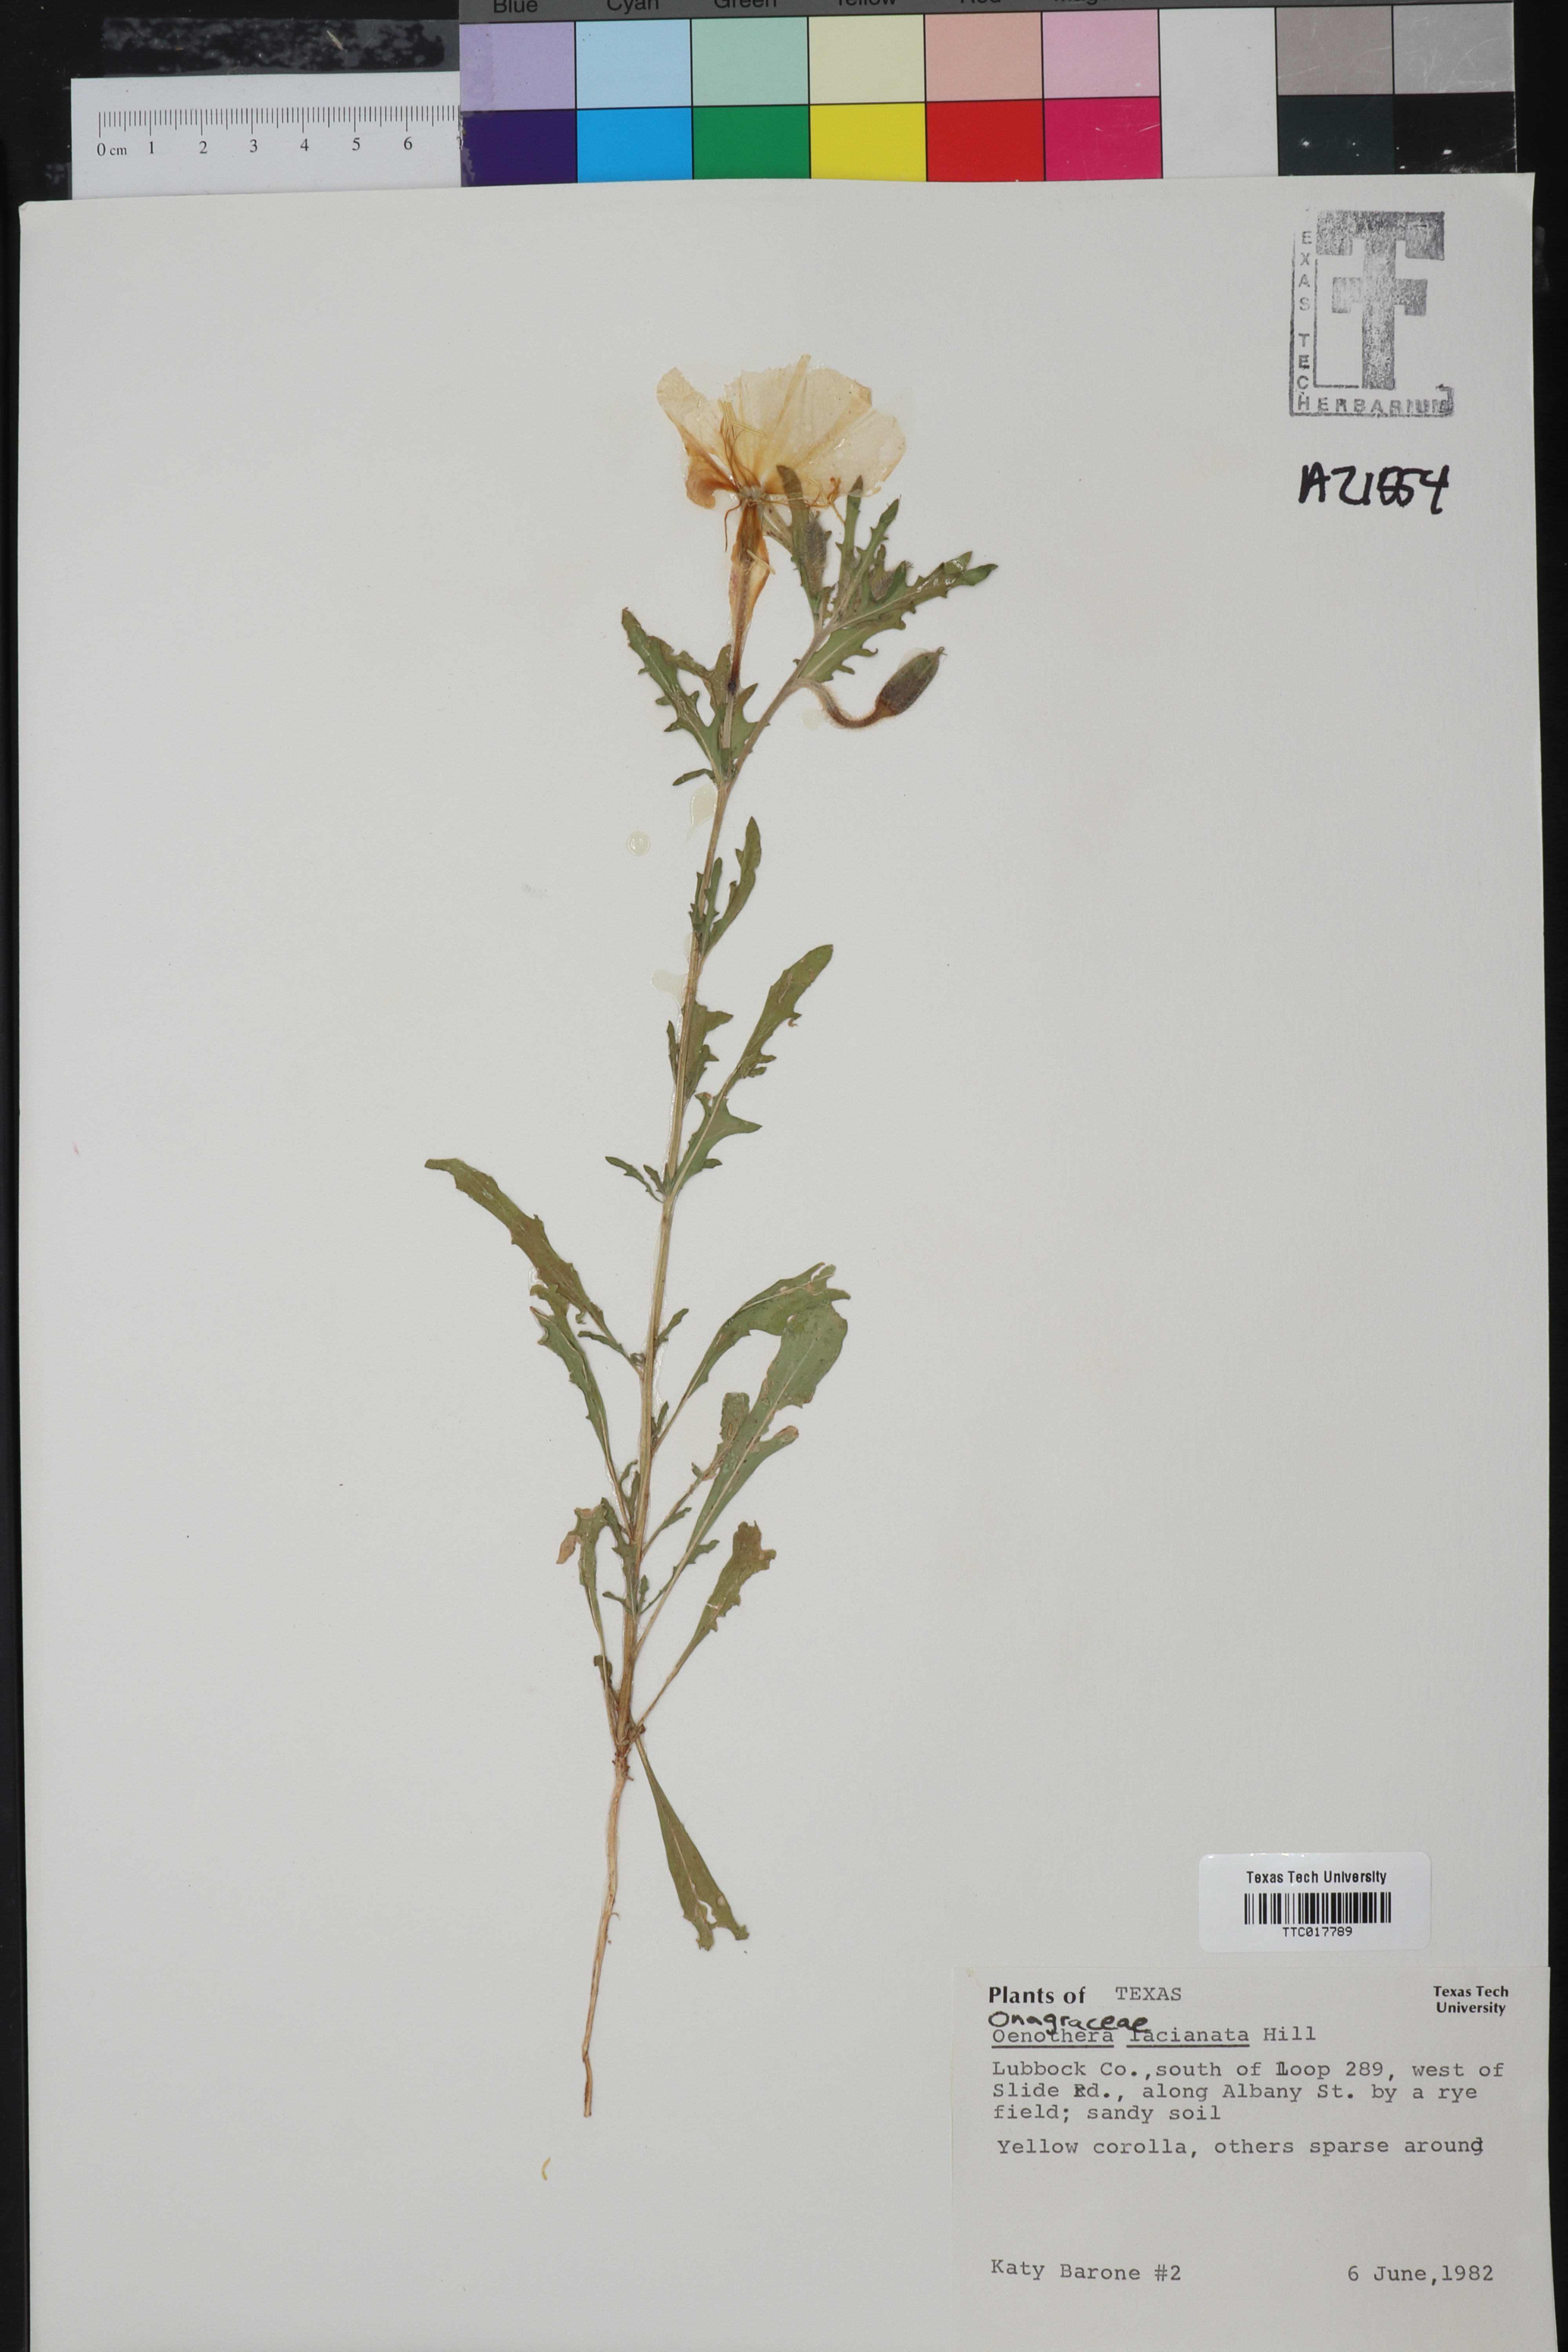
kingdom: Plantae
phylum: Tracheophyta
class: Magnoliopsida
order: Myrtales
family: Onagraceae
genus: Oenothera
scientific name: Oenothera laciniata
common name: Cut-leaved evening-primrose
